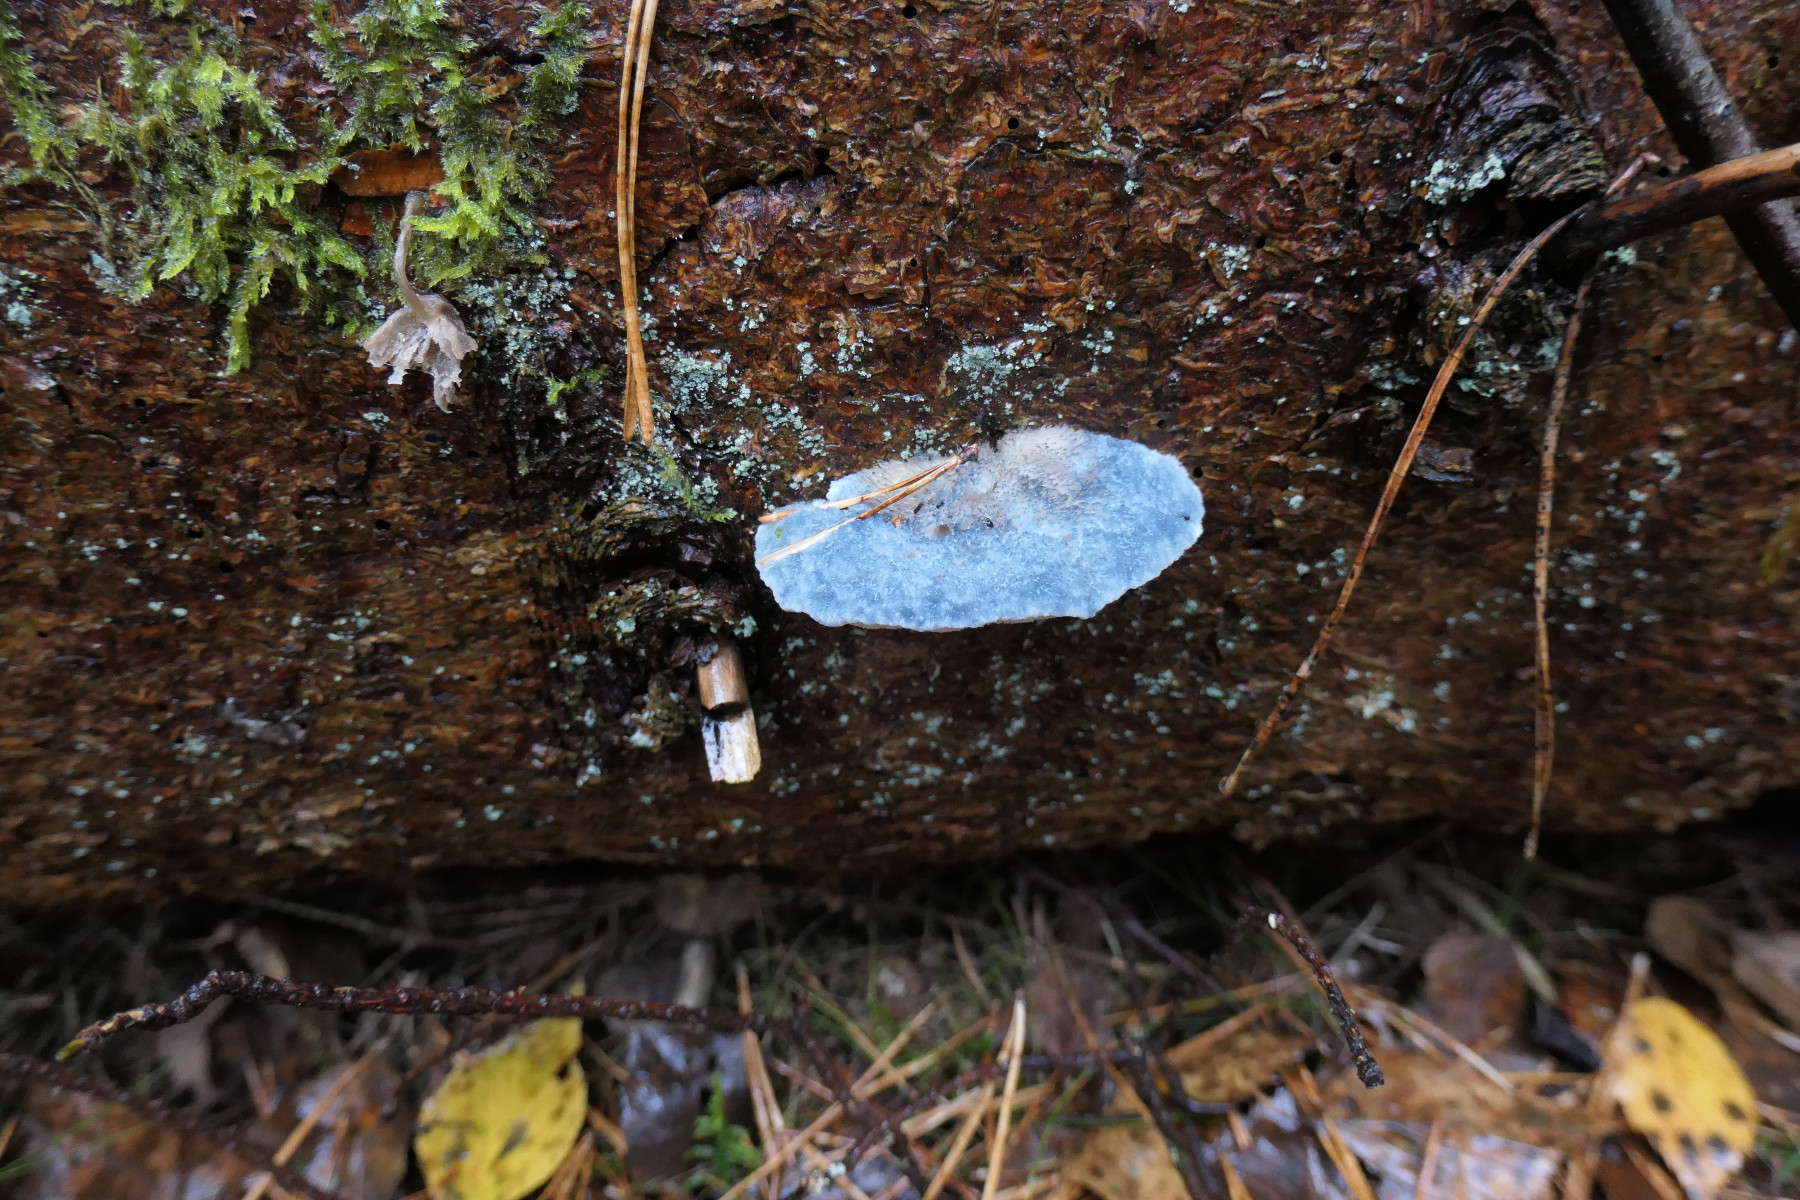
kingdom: Fungi
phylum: Basidiomycota
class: Agaricomycetes
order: Polyporales
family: Polyporaceae
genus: Cyanosporus
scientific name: Cyanosporus caesius
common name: blålig kødporesvamp
